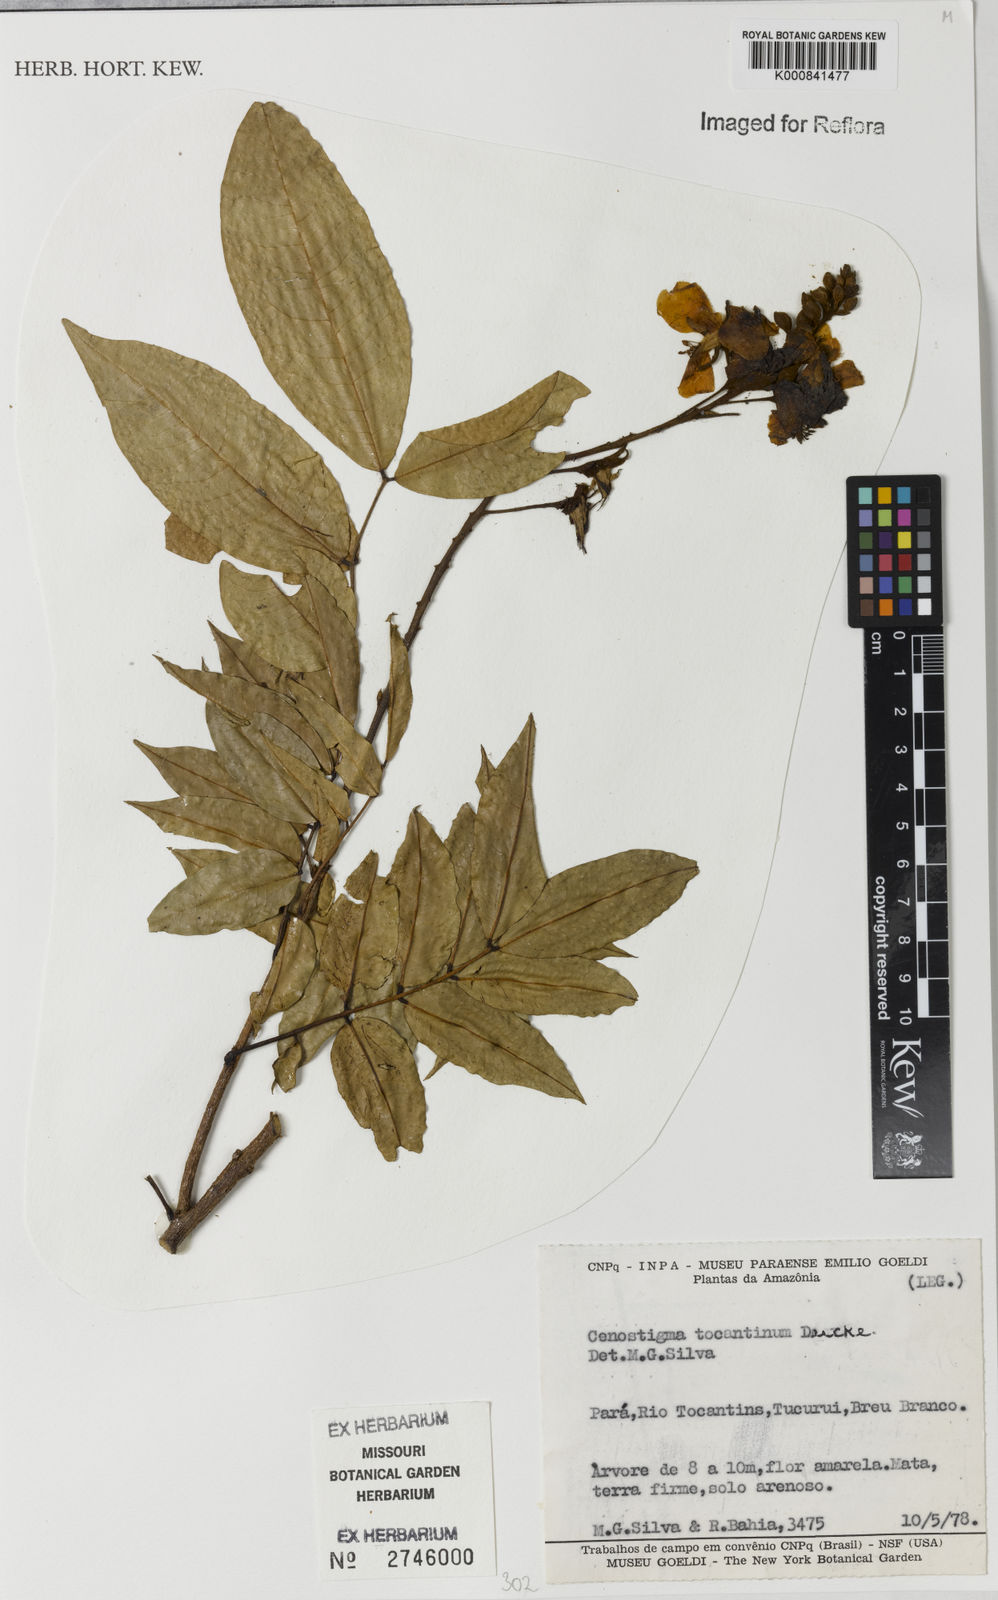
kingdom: Plantae
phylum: Tracheophyta
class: Magnoliopsida
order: Fabales
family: Fabaceae
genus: Cenostigma
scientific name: Cenostigma tocantinum
